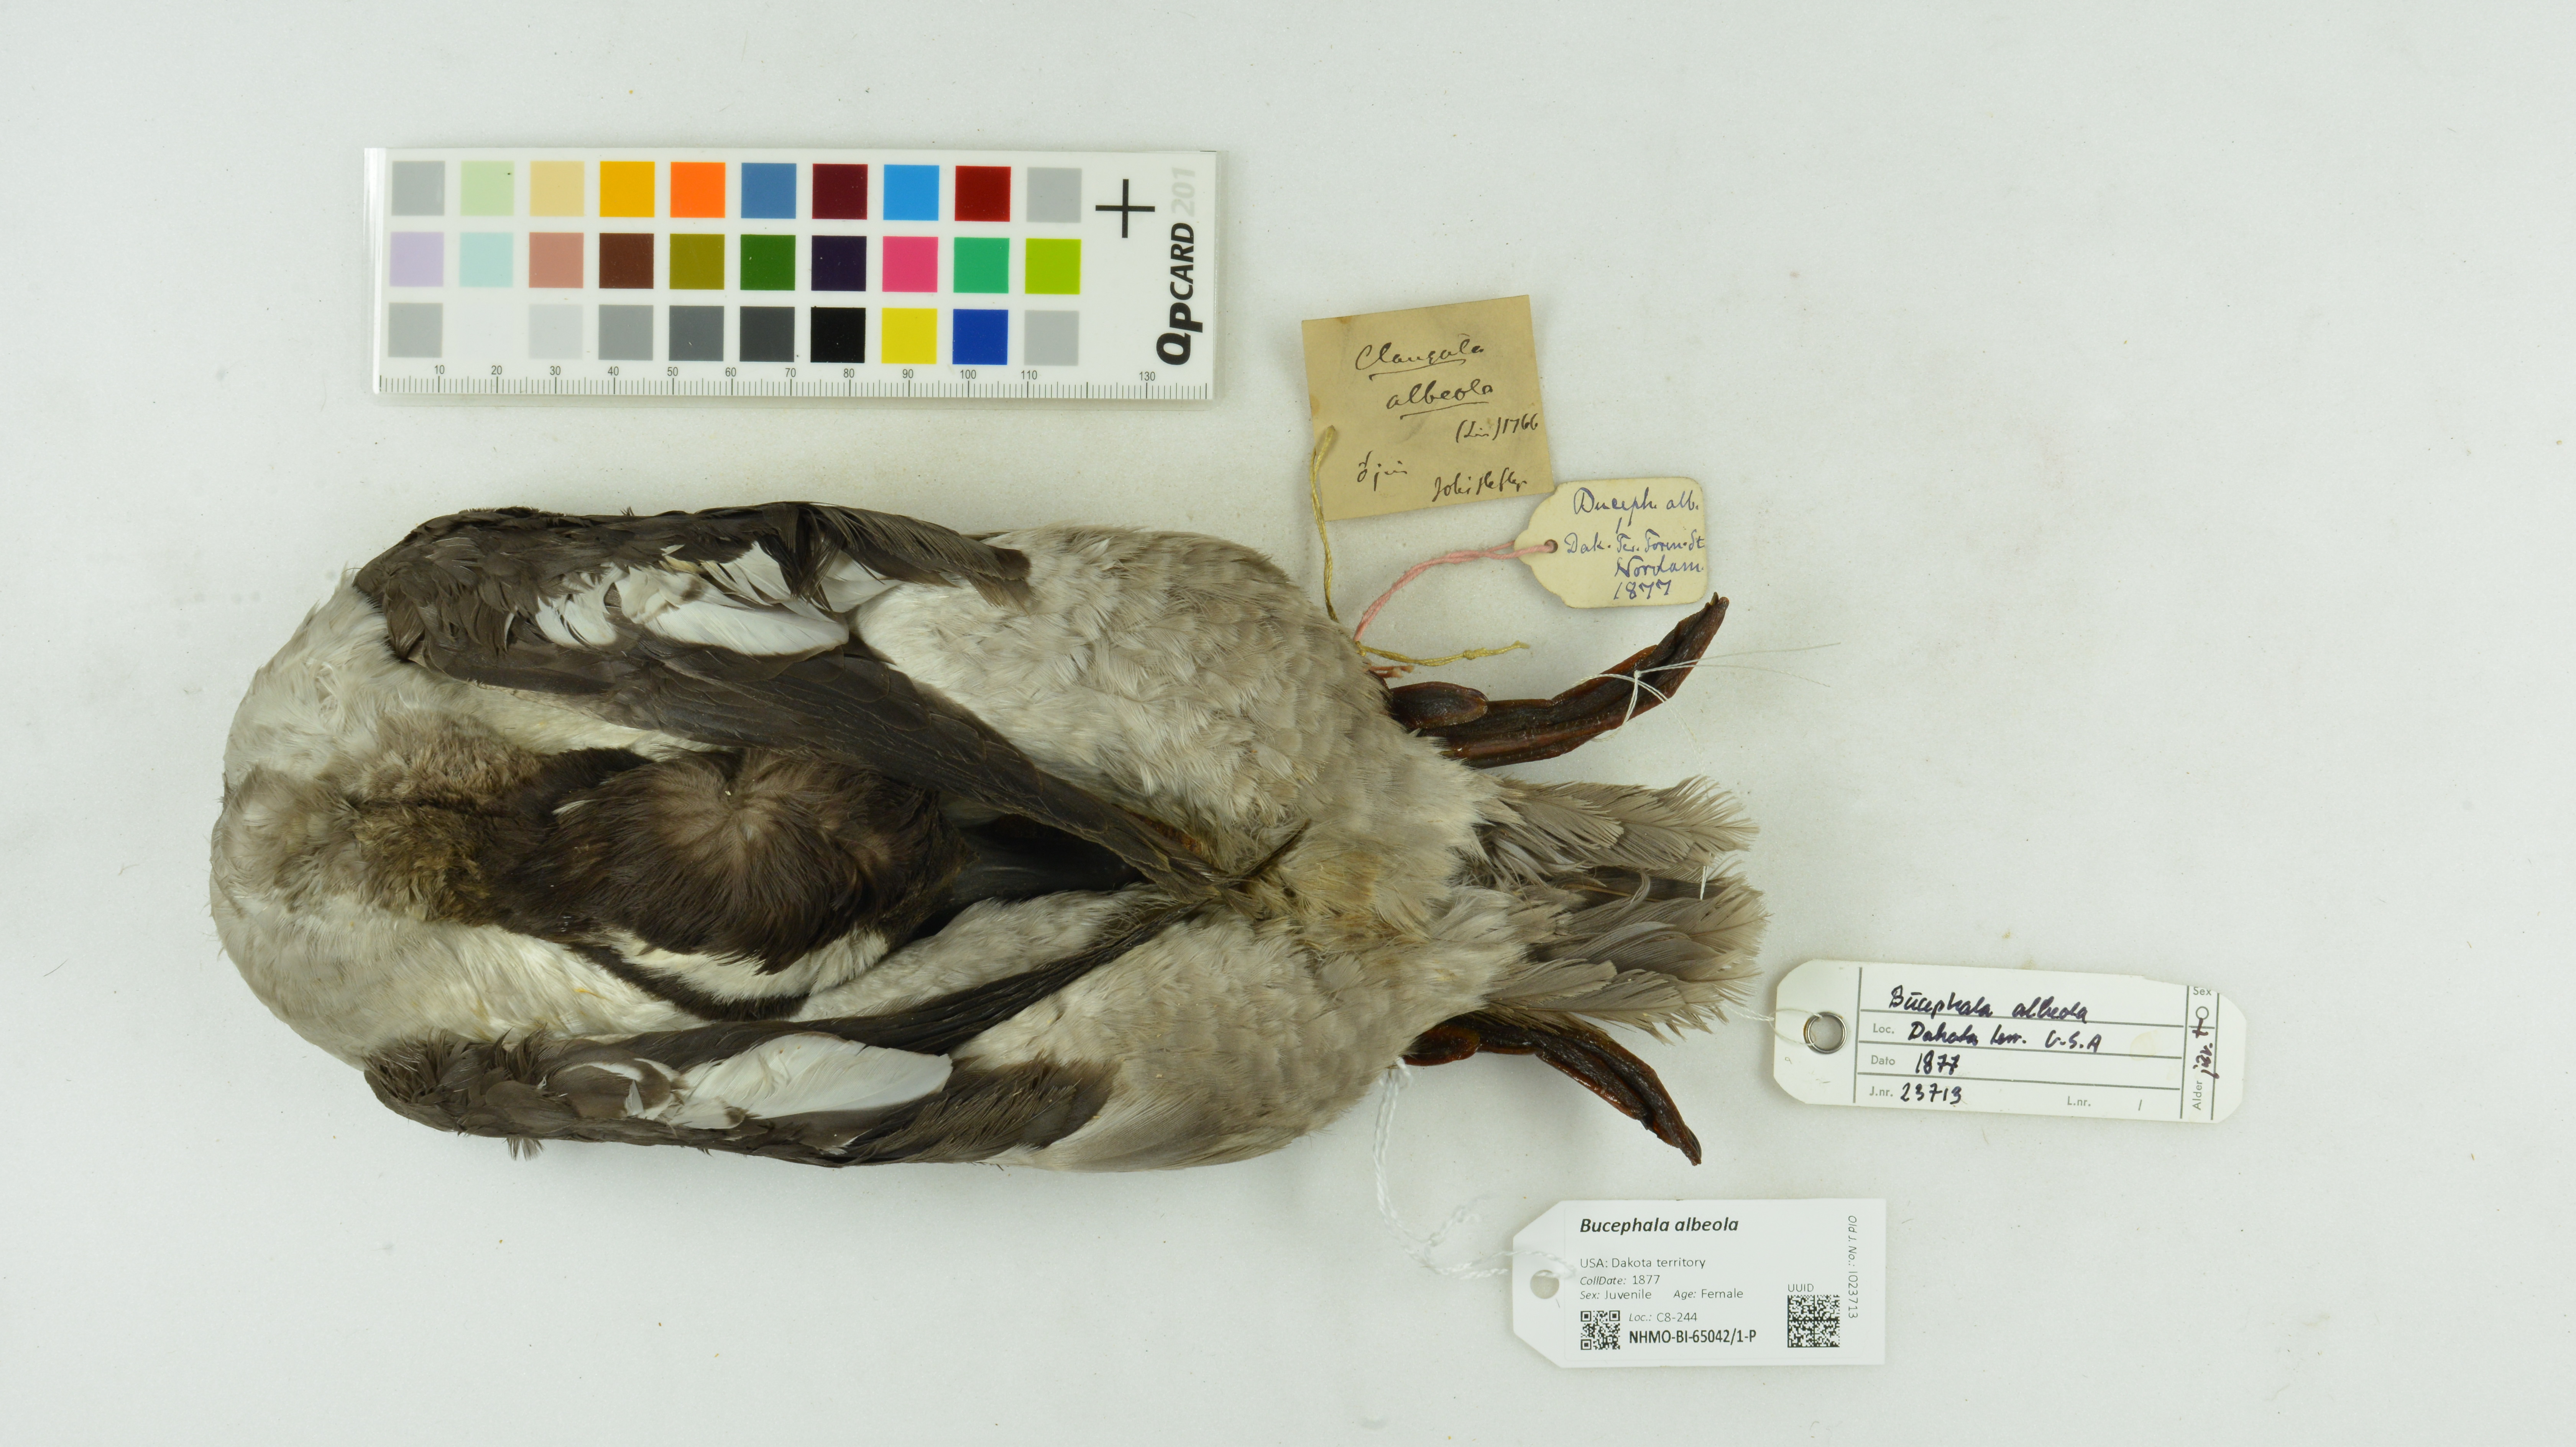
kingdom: Animalia
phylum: Chordata
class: Aves
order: Anseriformes
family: Anatidae
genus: Bucephala
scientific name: Bucephala albeola
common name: Bufflehead
